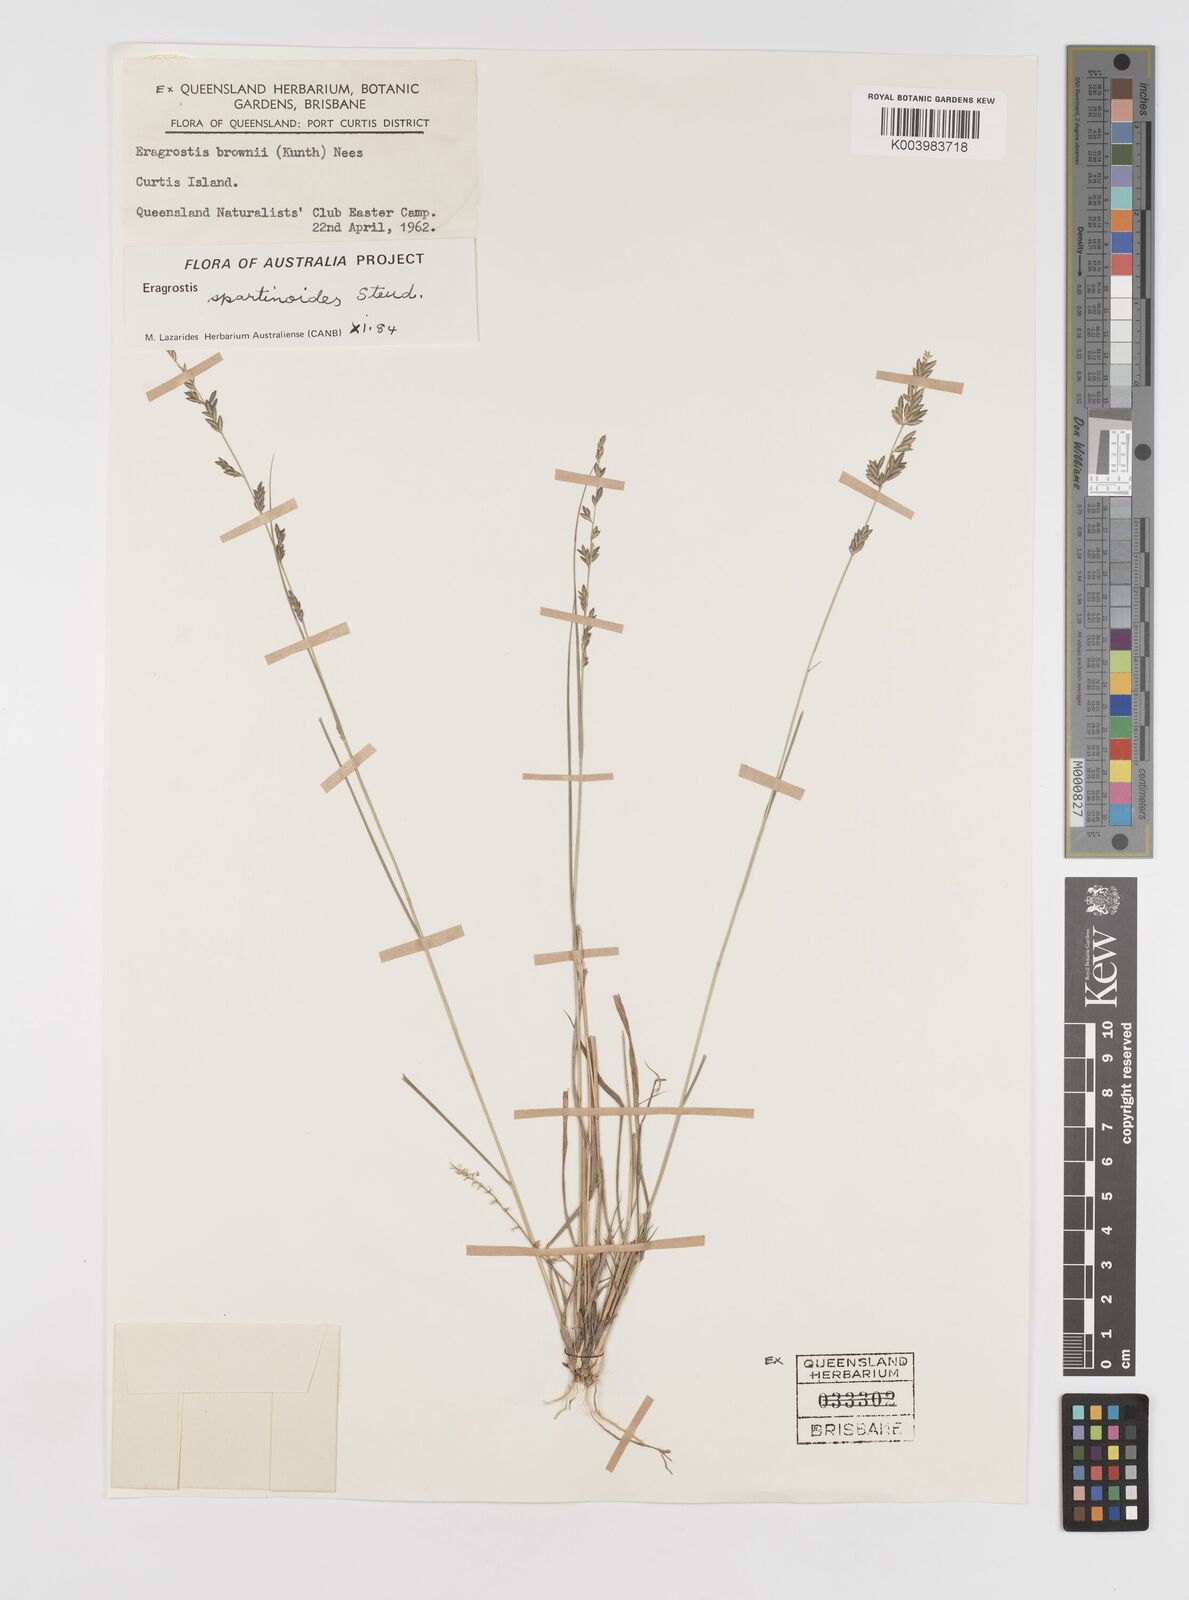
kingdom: Plantae
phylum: Tracheophyta
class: Liliopsida
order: Poales
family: Poaceae
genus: Eragrostis
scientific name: Eragrostis brownii
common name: Lovegrass
